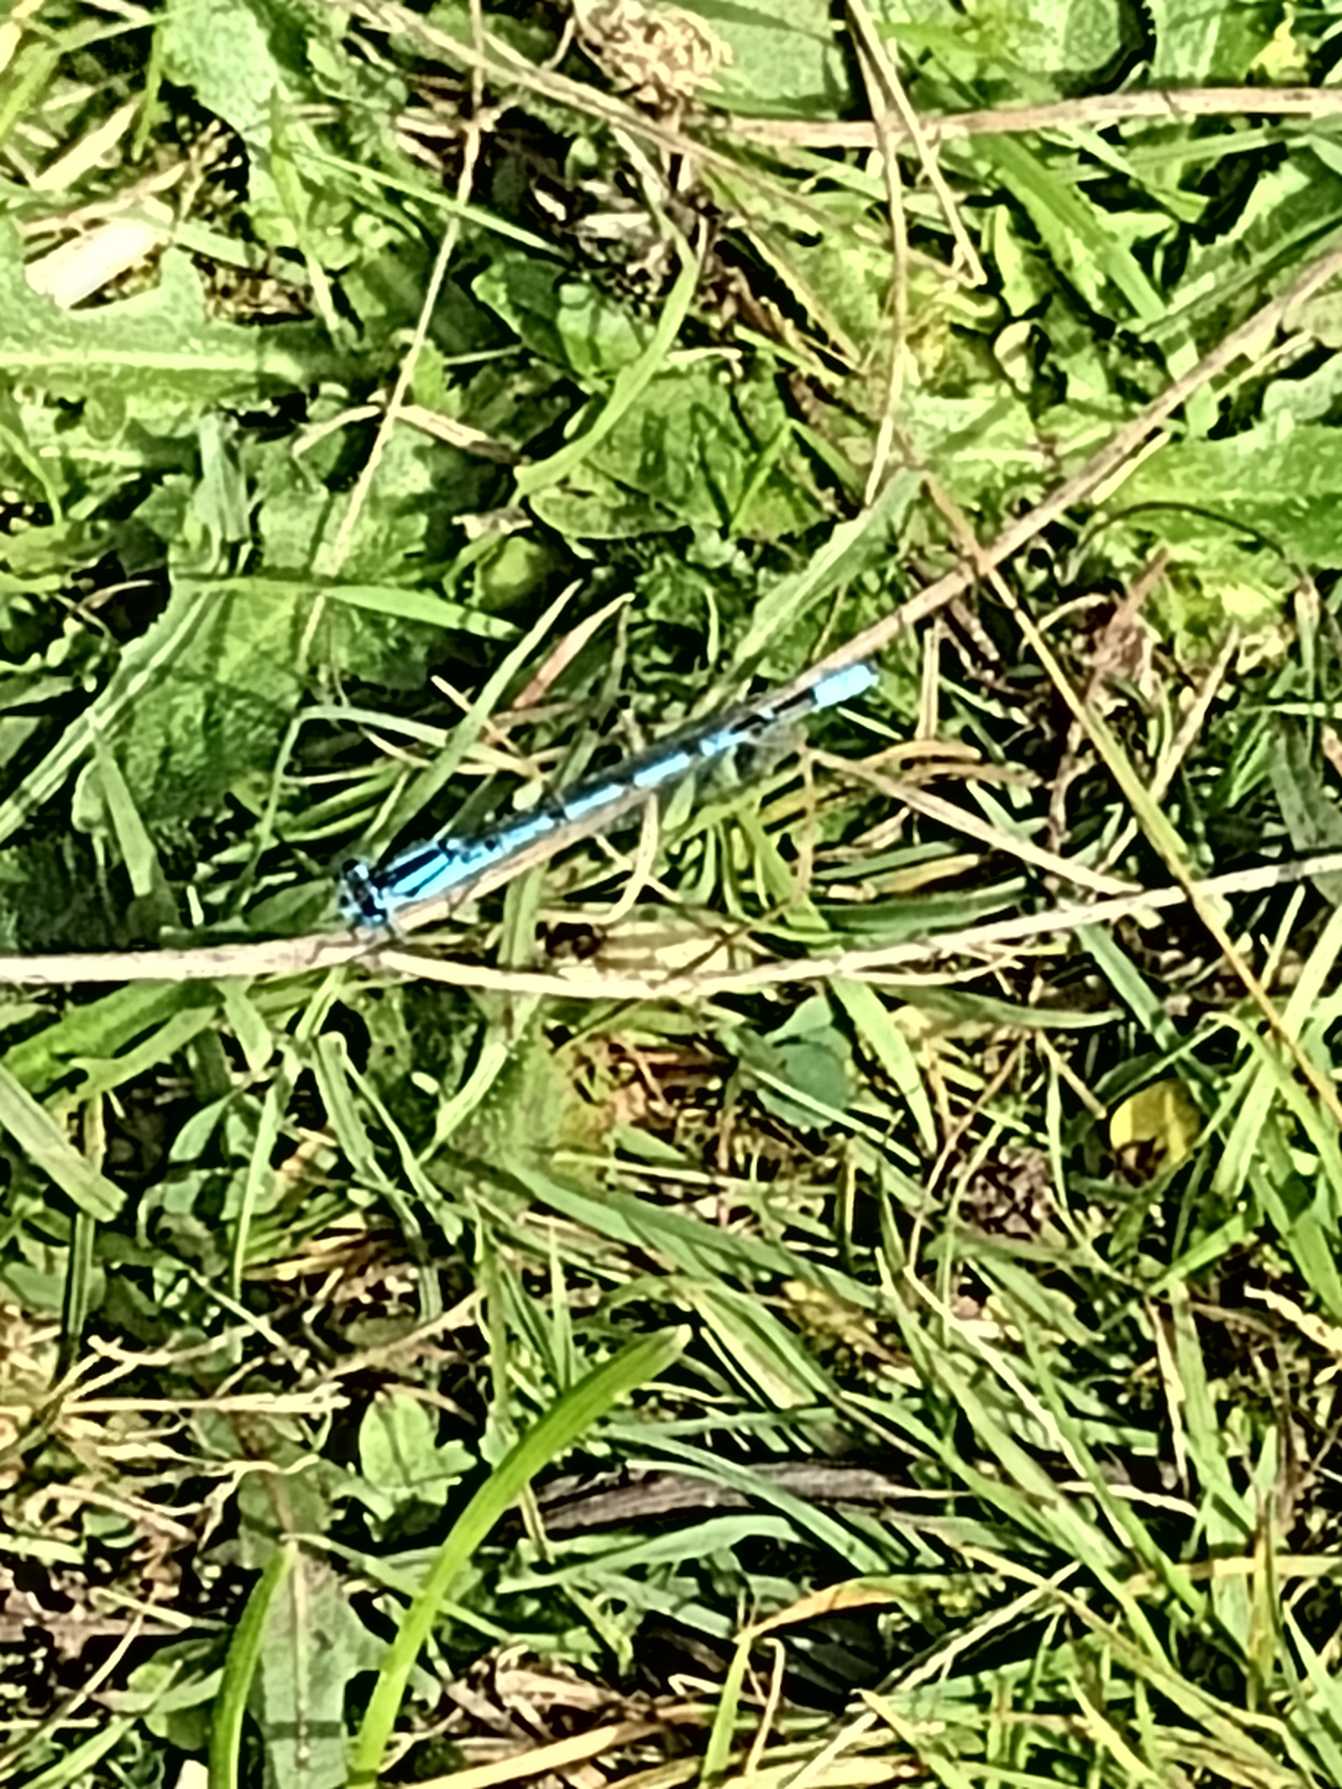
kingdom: Animalia
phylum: Arthropoda
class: Insecta
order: Odonata
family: Coenagrionidae
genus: Enallagma
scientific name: Enallagma cyathigerum
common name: Almindelig vandnymfe
